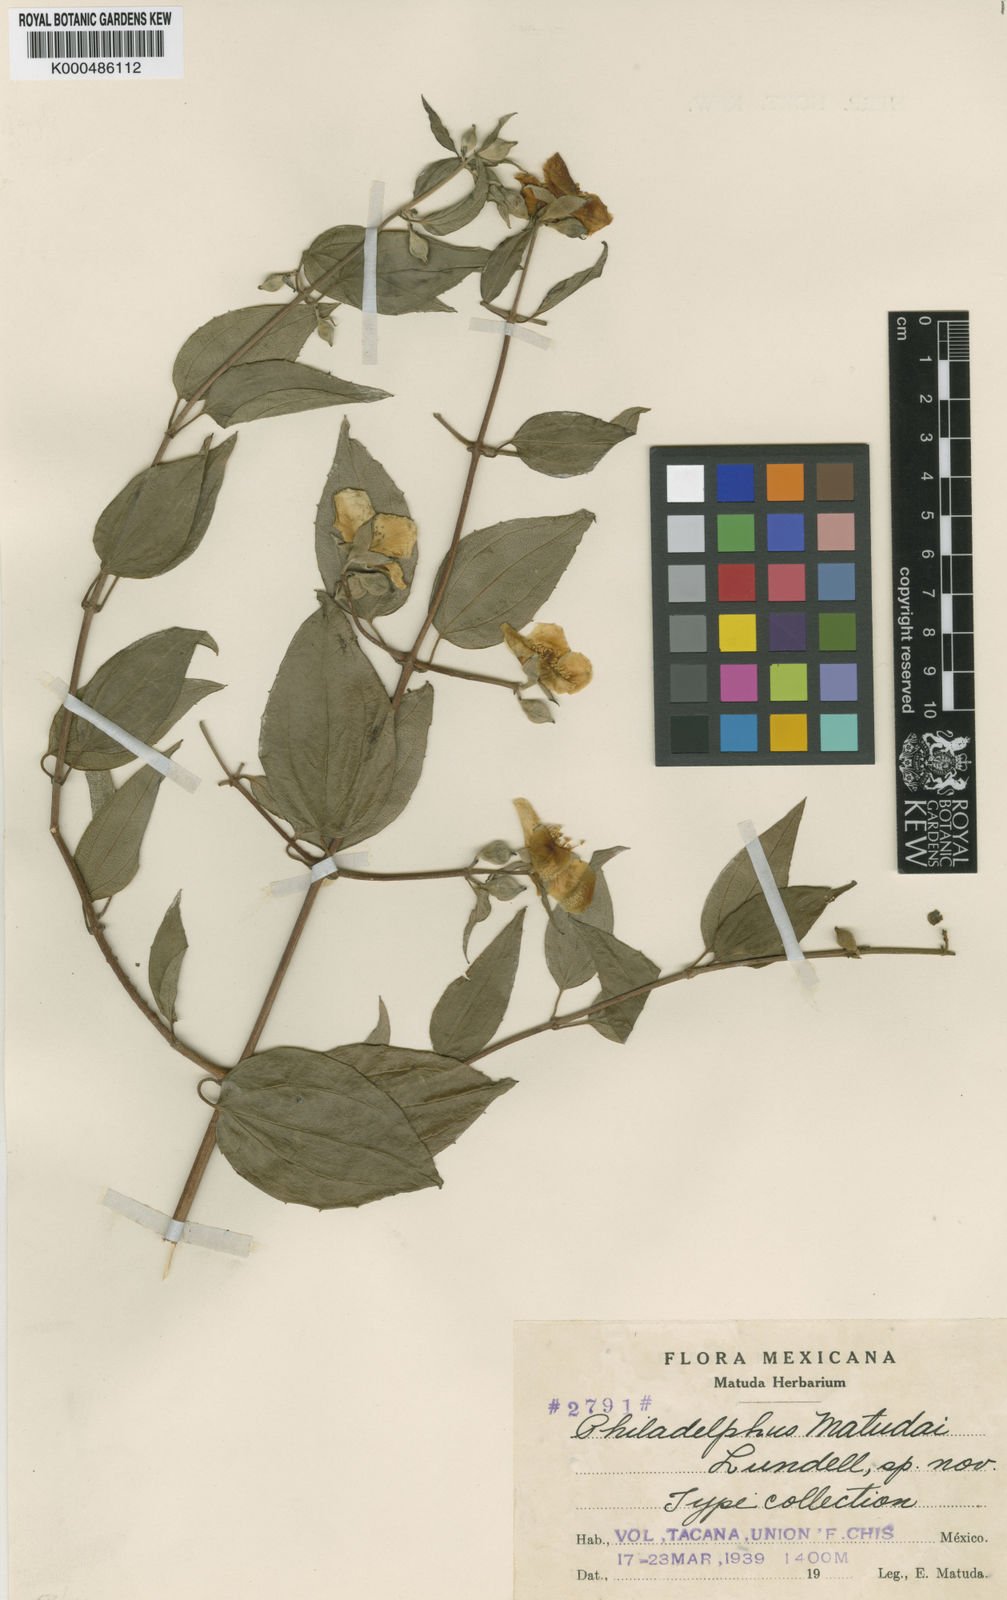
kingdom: Plantae
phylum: Tracheophyta
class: Magnoliopsida
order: Cornales
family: Hydrangeaceae
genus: Philadelphus
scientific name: Philadelphus mexicanus
